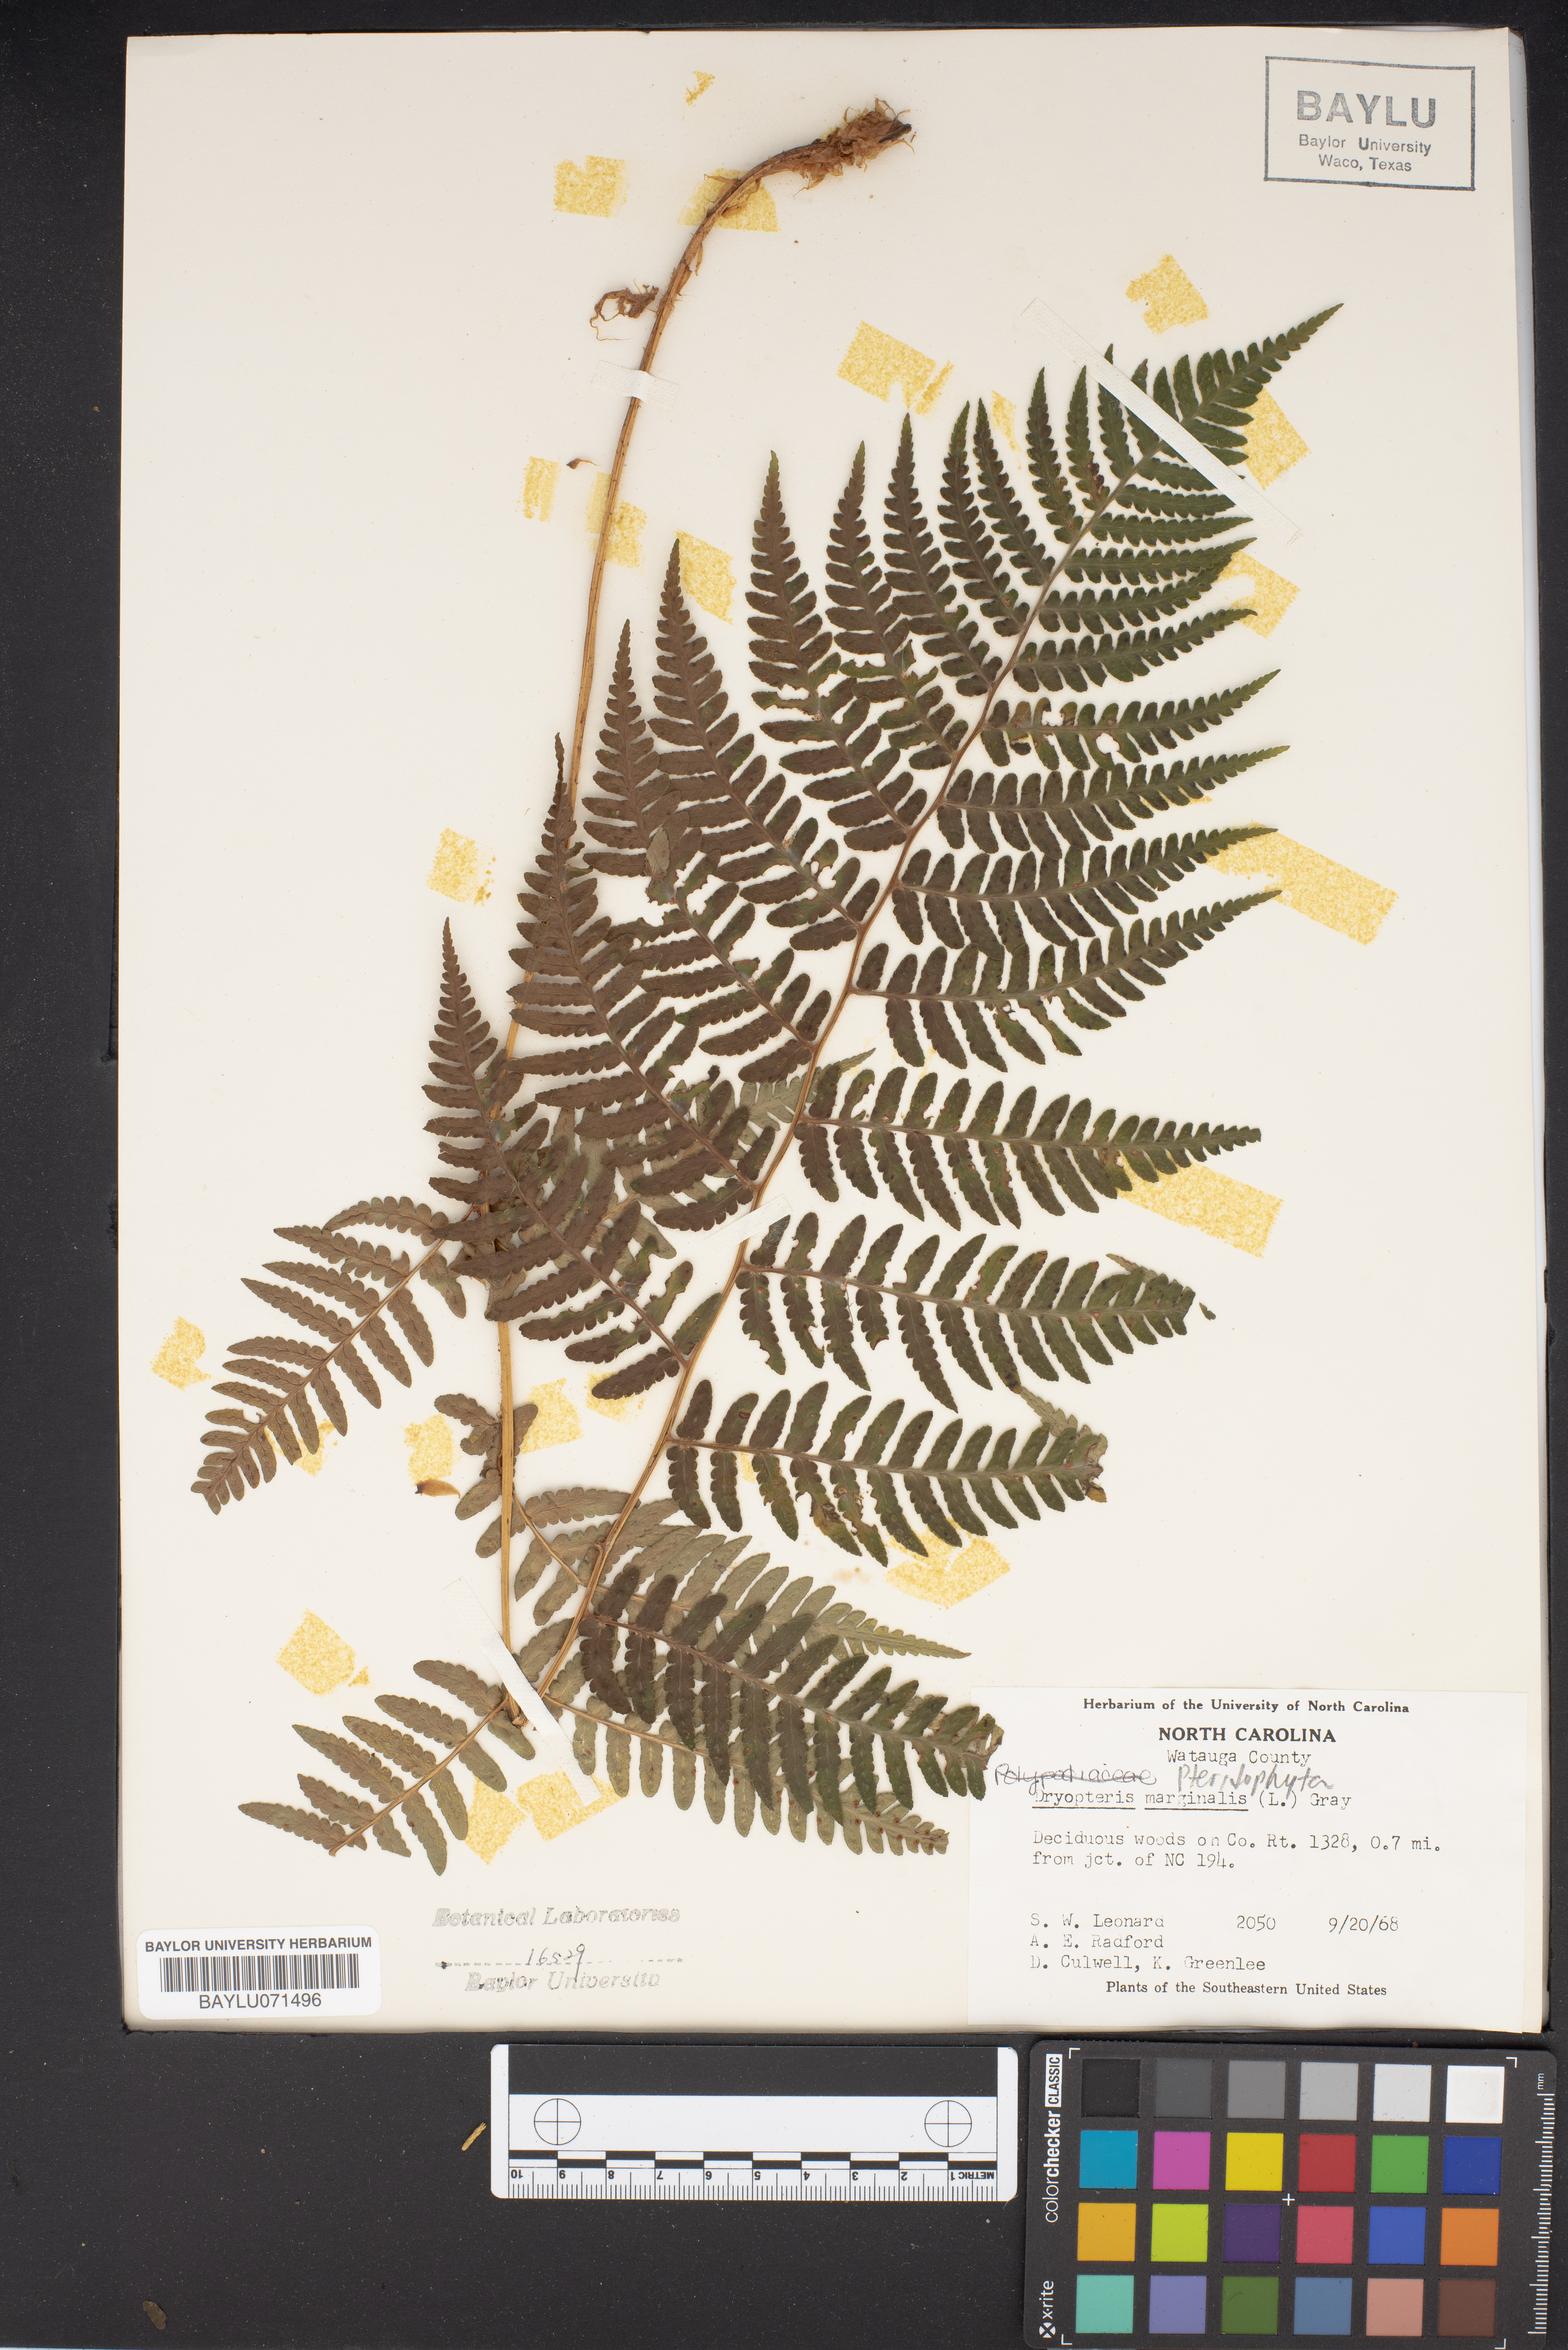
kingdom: Plantae
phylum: Tracheophyta
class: Polypodiopsida
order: Polypodiales
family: Dryopteridaceae
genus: Dryopteris
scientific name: Dryopteris marginalis
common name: Marginal wood fern
